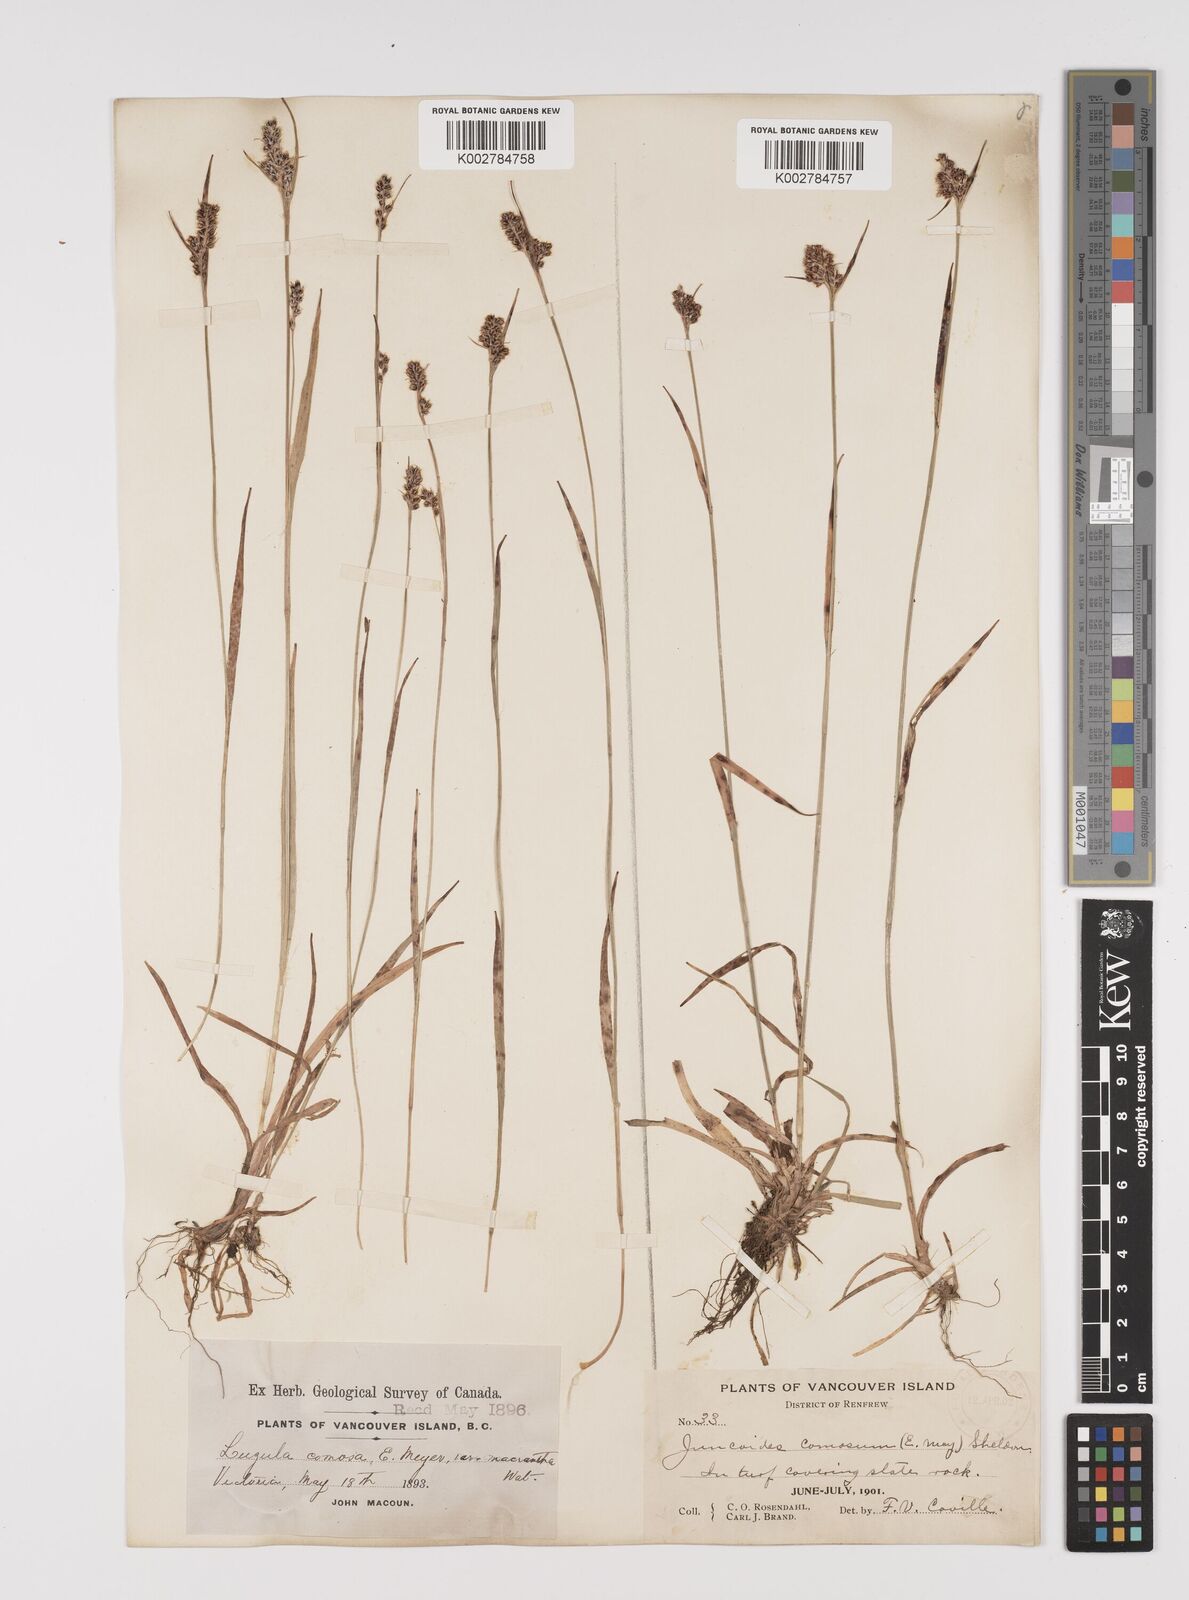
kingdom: Plantae
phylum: Tracheophyta
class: Liliopsida
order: Poales
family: Juncaceae
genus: Luzula
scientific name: Luzula comosa
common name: Pacific woodrush
